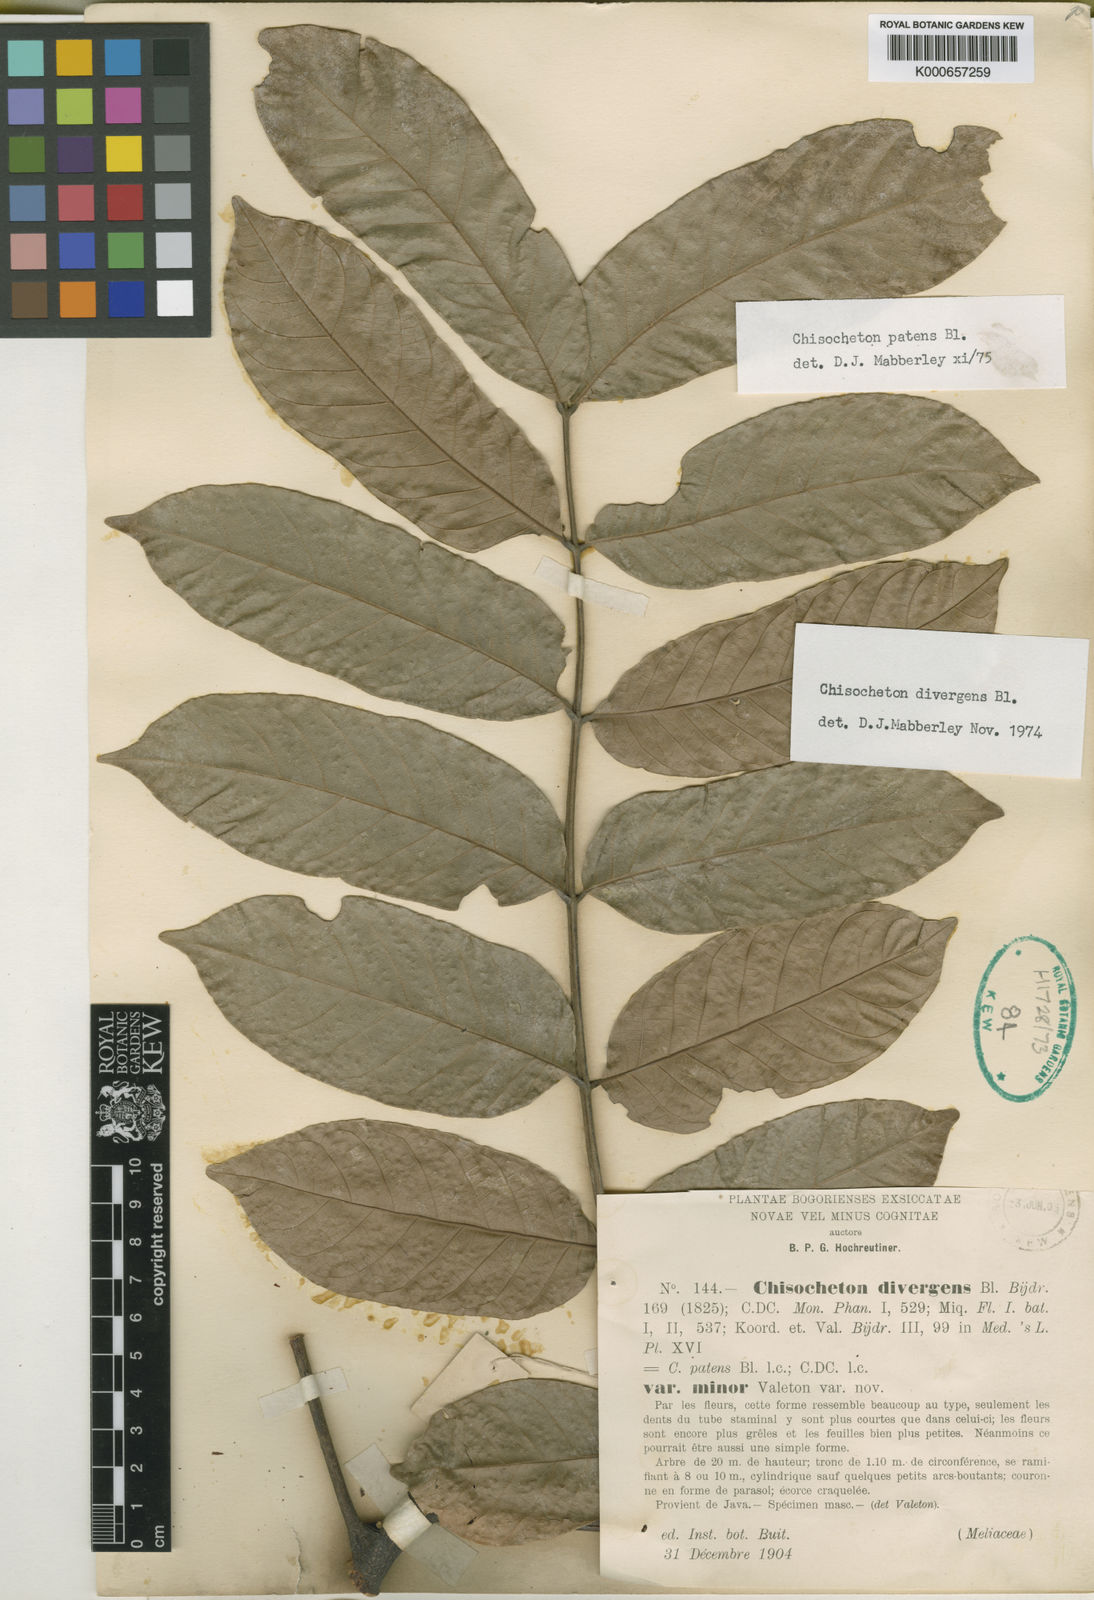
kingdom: Plantae
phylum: Tracheophyta
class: Magnoliopsida
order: Sapindales
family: Meliaceae
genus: Chisocheton
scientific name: Chisocheton patens
